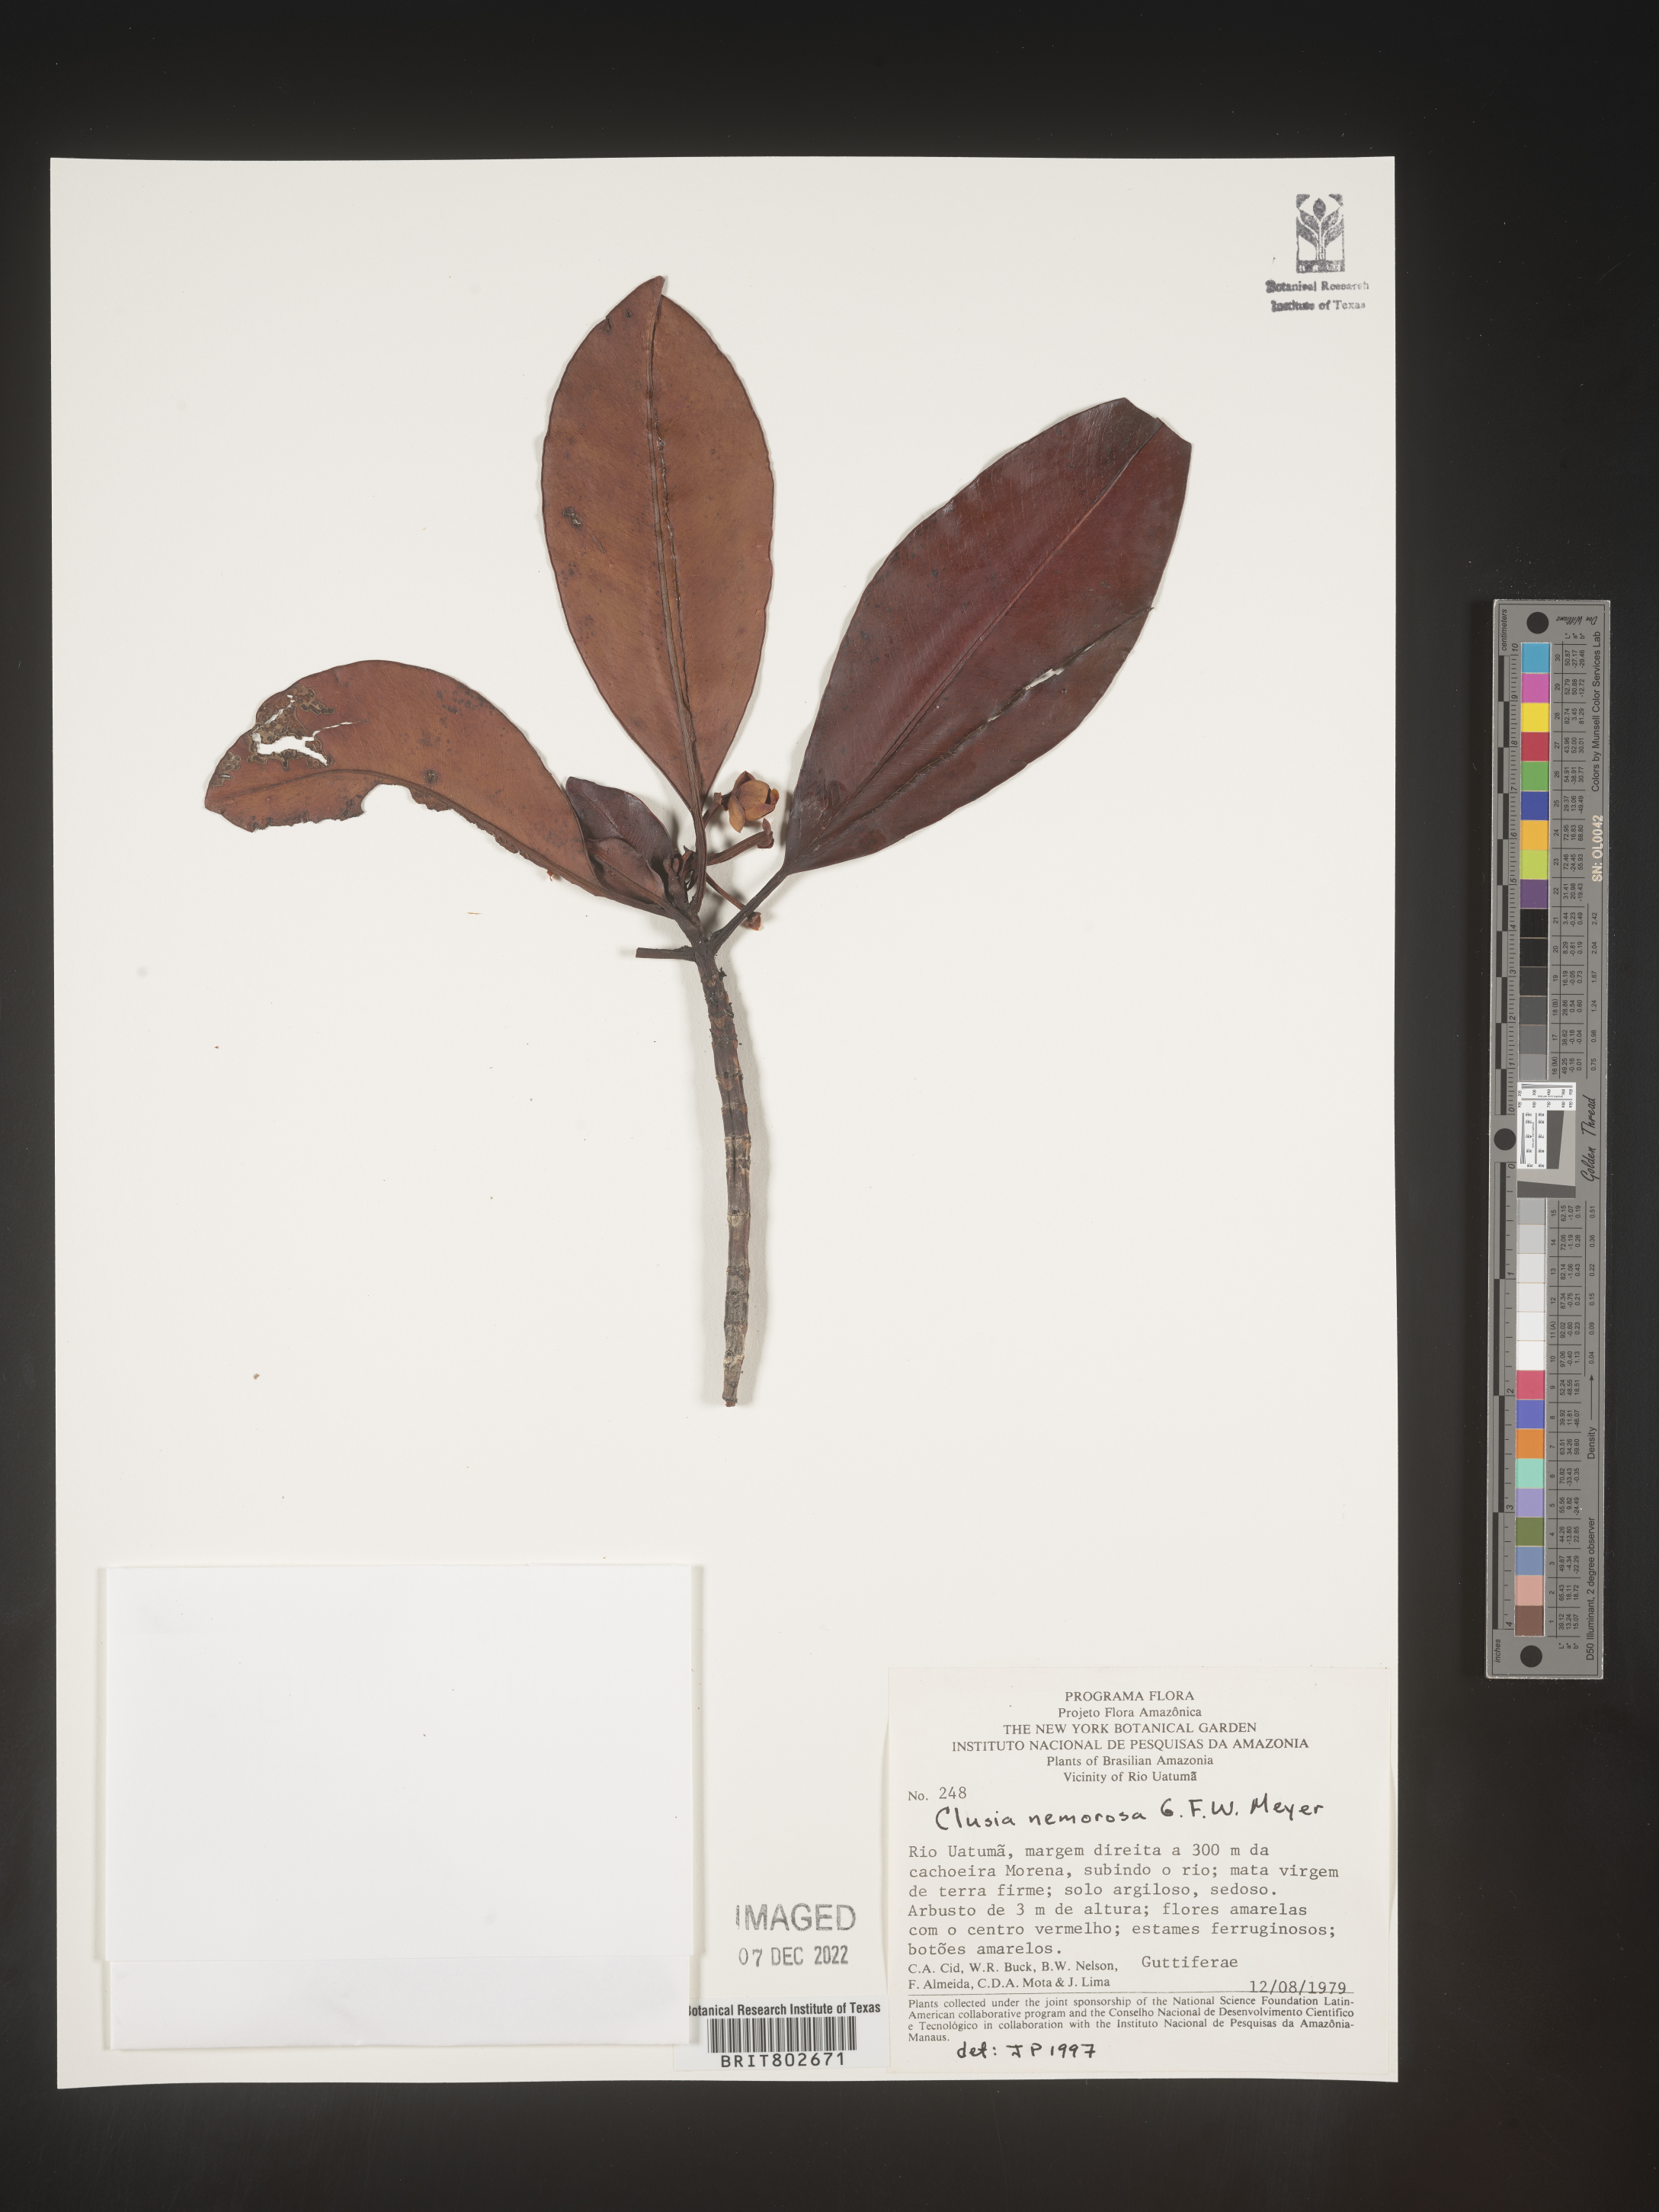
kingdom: Plantae
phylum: Tracheophyta
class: Magnoliopsida
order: Malpighiales
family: Clusiaceae
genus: Clusia
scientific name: Clusia nemorosa
